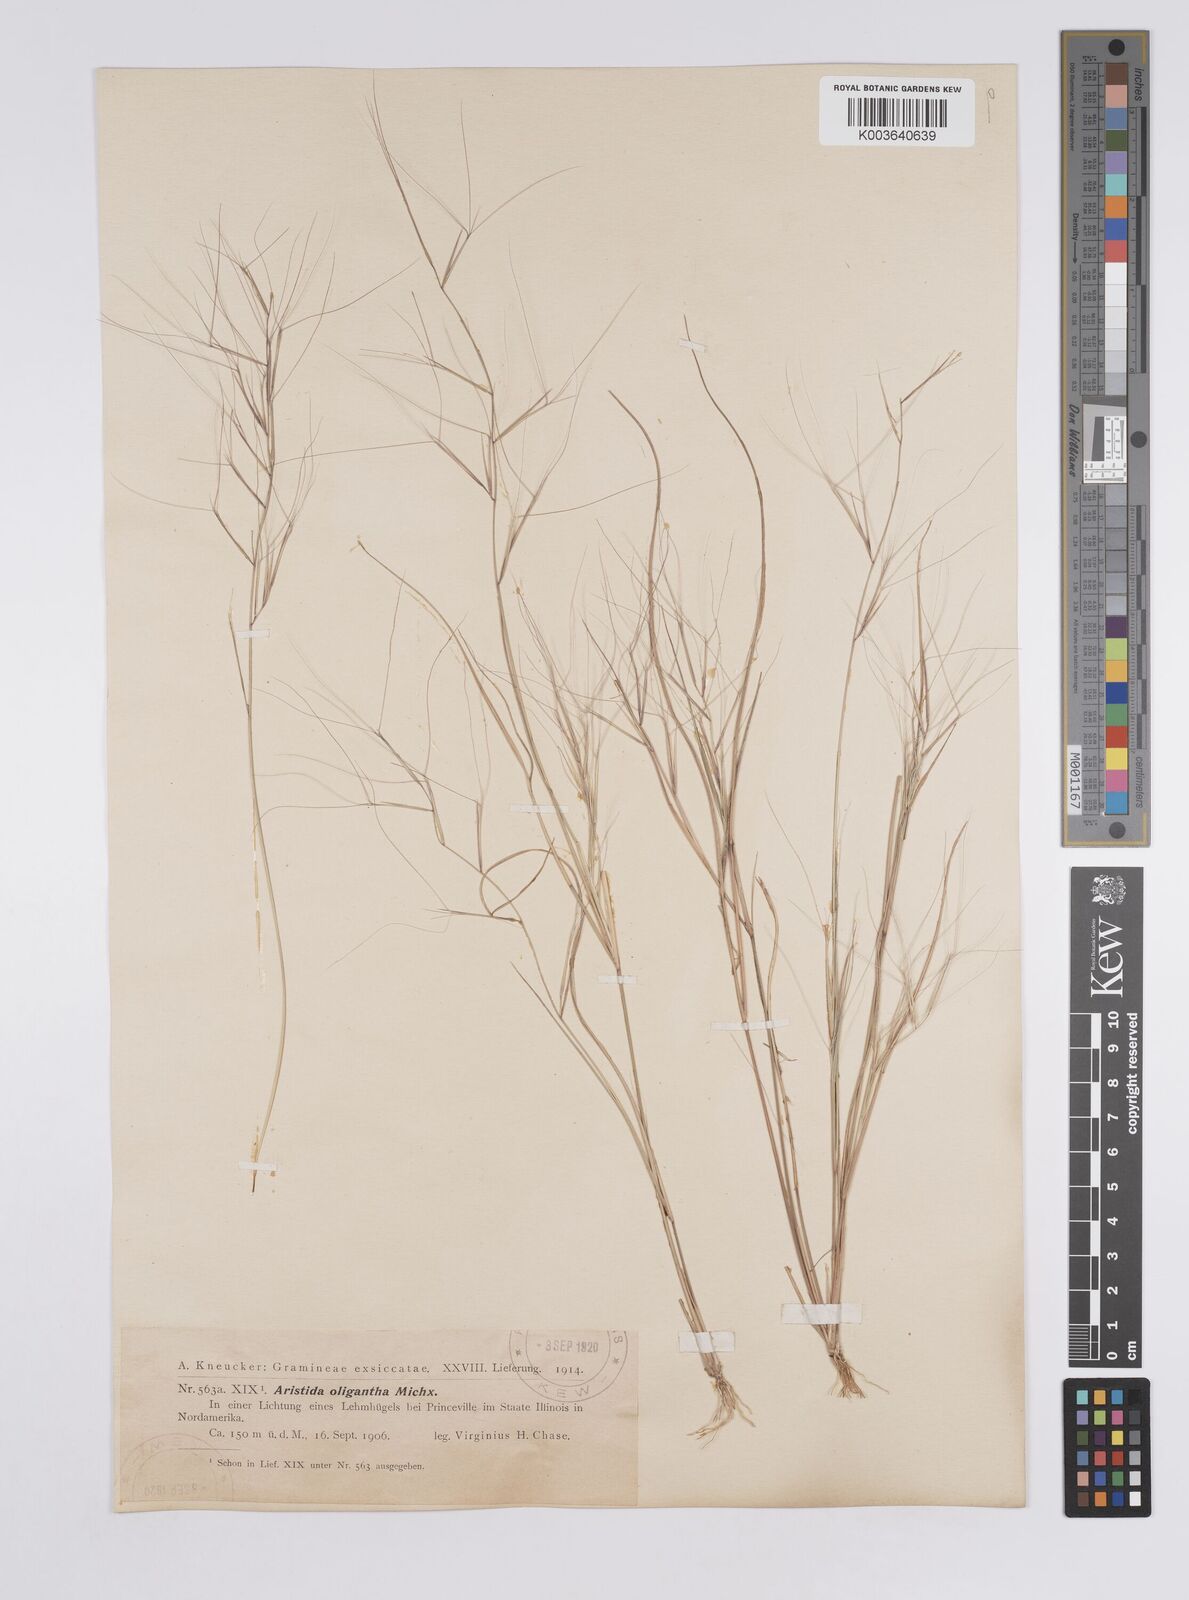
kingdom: Plantae
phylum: Tracheophyta
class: Liliopsida
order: Poales
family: Poaceae
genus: Aristida
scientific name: Aristida oligantha
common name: Few-flowered aristida
